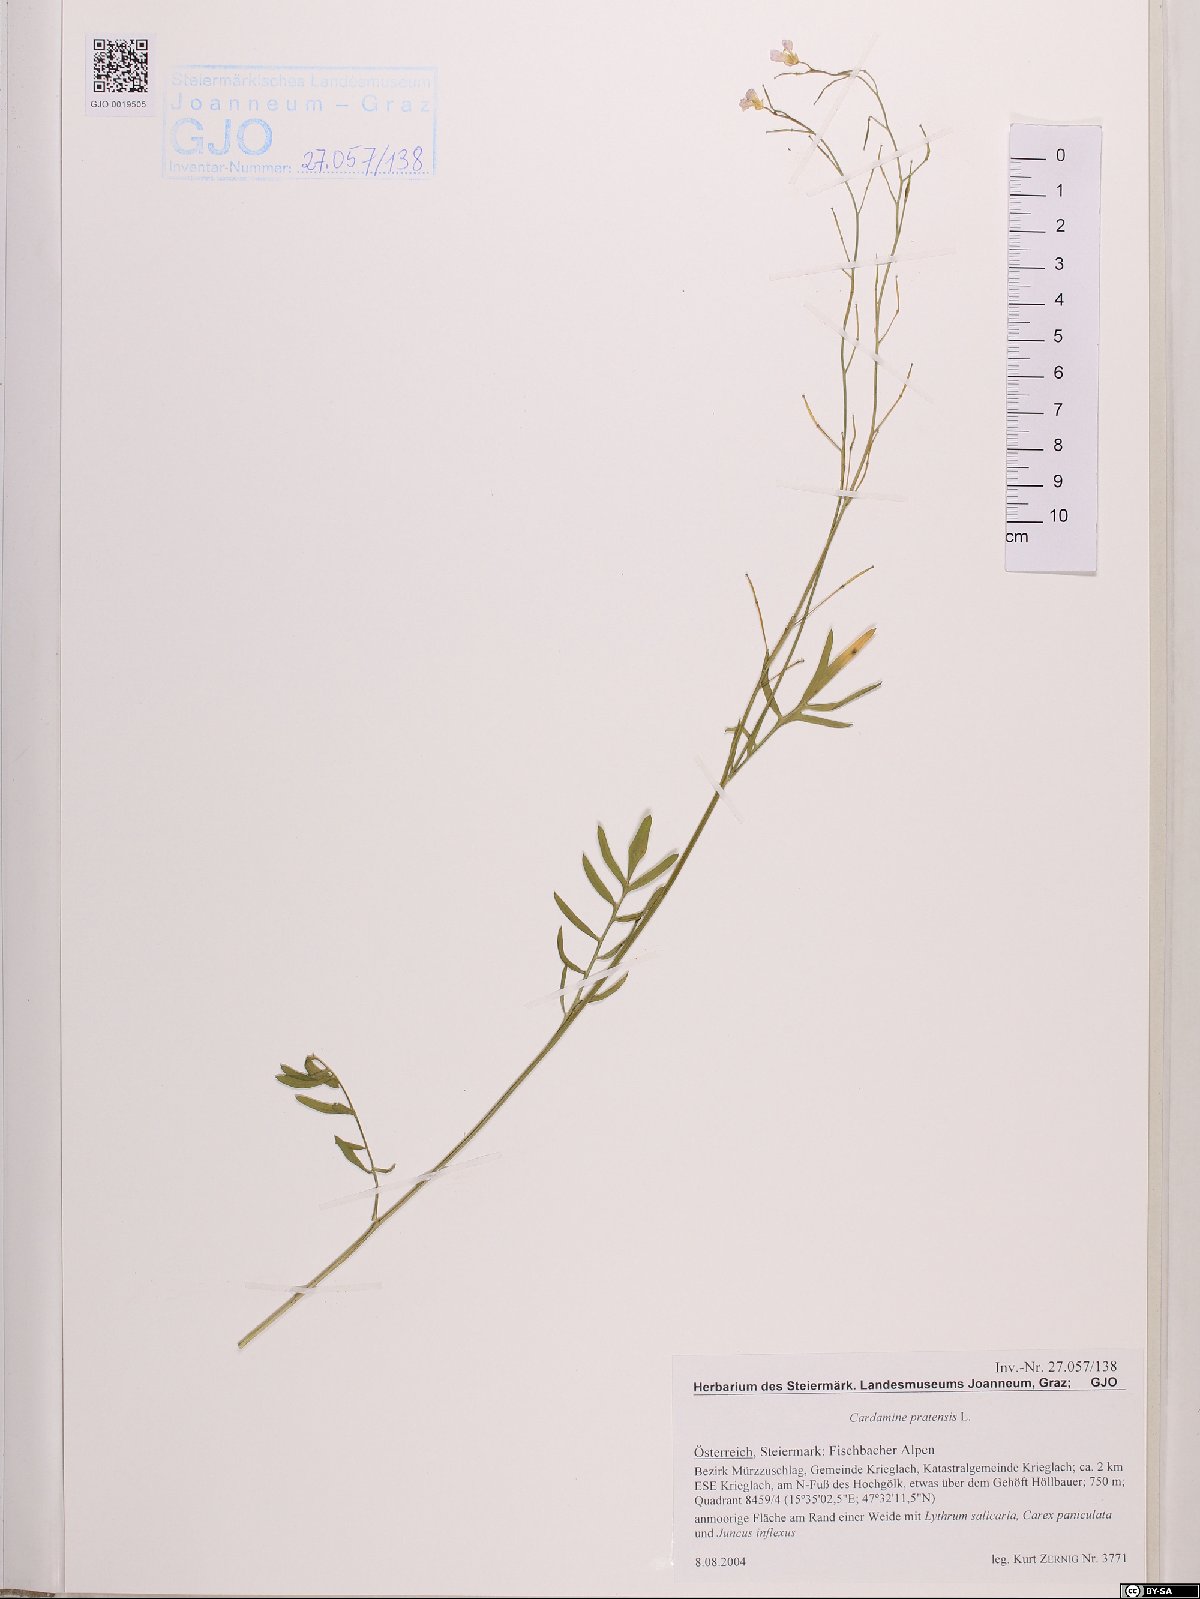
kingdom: Plantae
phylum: Tracheophyta
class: Magnoliopsida
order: Brassicales
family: Brassicaceae
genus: Cardamine
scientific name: Cardamine pratensis
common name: Cuckoo flower
